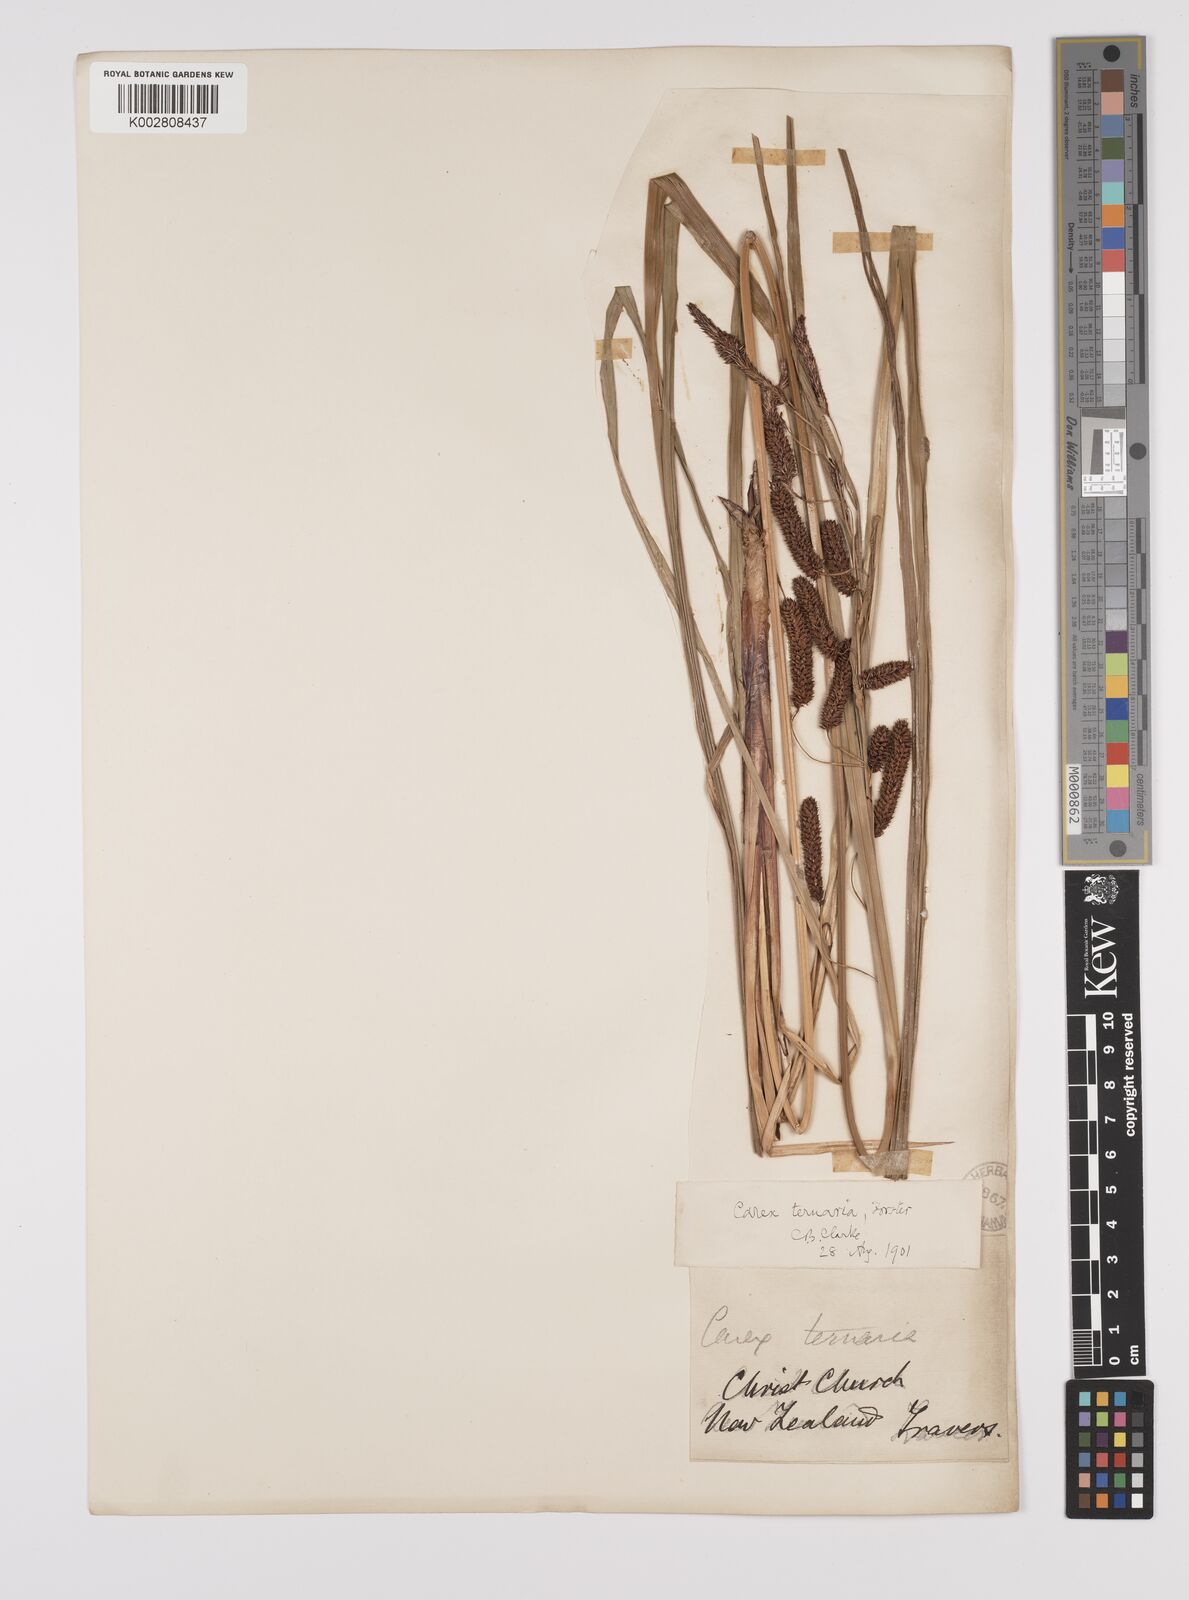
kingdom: Plantae
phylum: Tracheophyta
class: Liliopsida
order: Poales
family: Cyperaceae
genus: Carex
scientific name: Carex lessoniana
